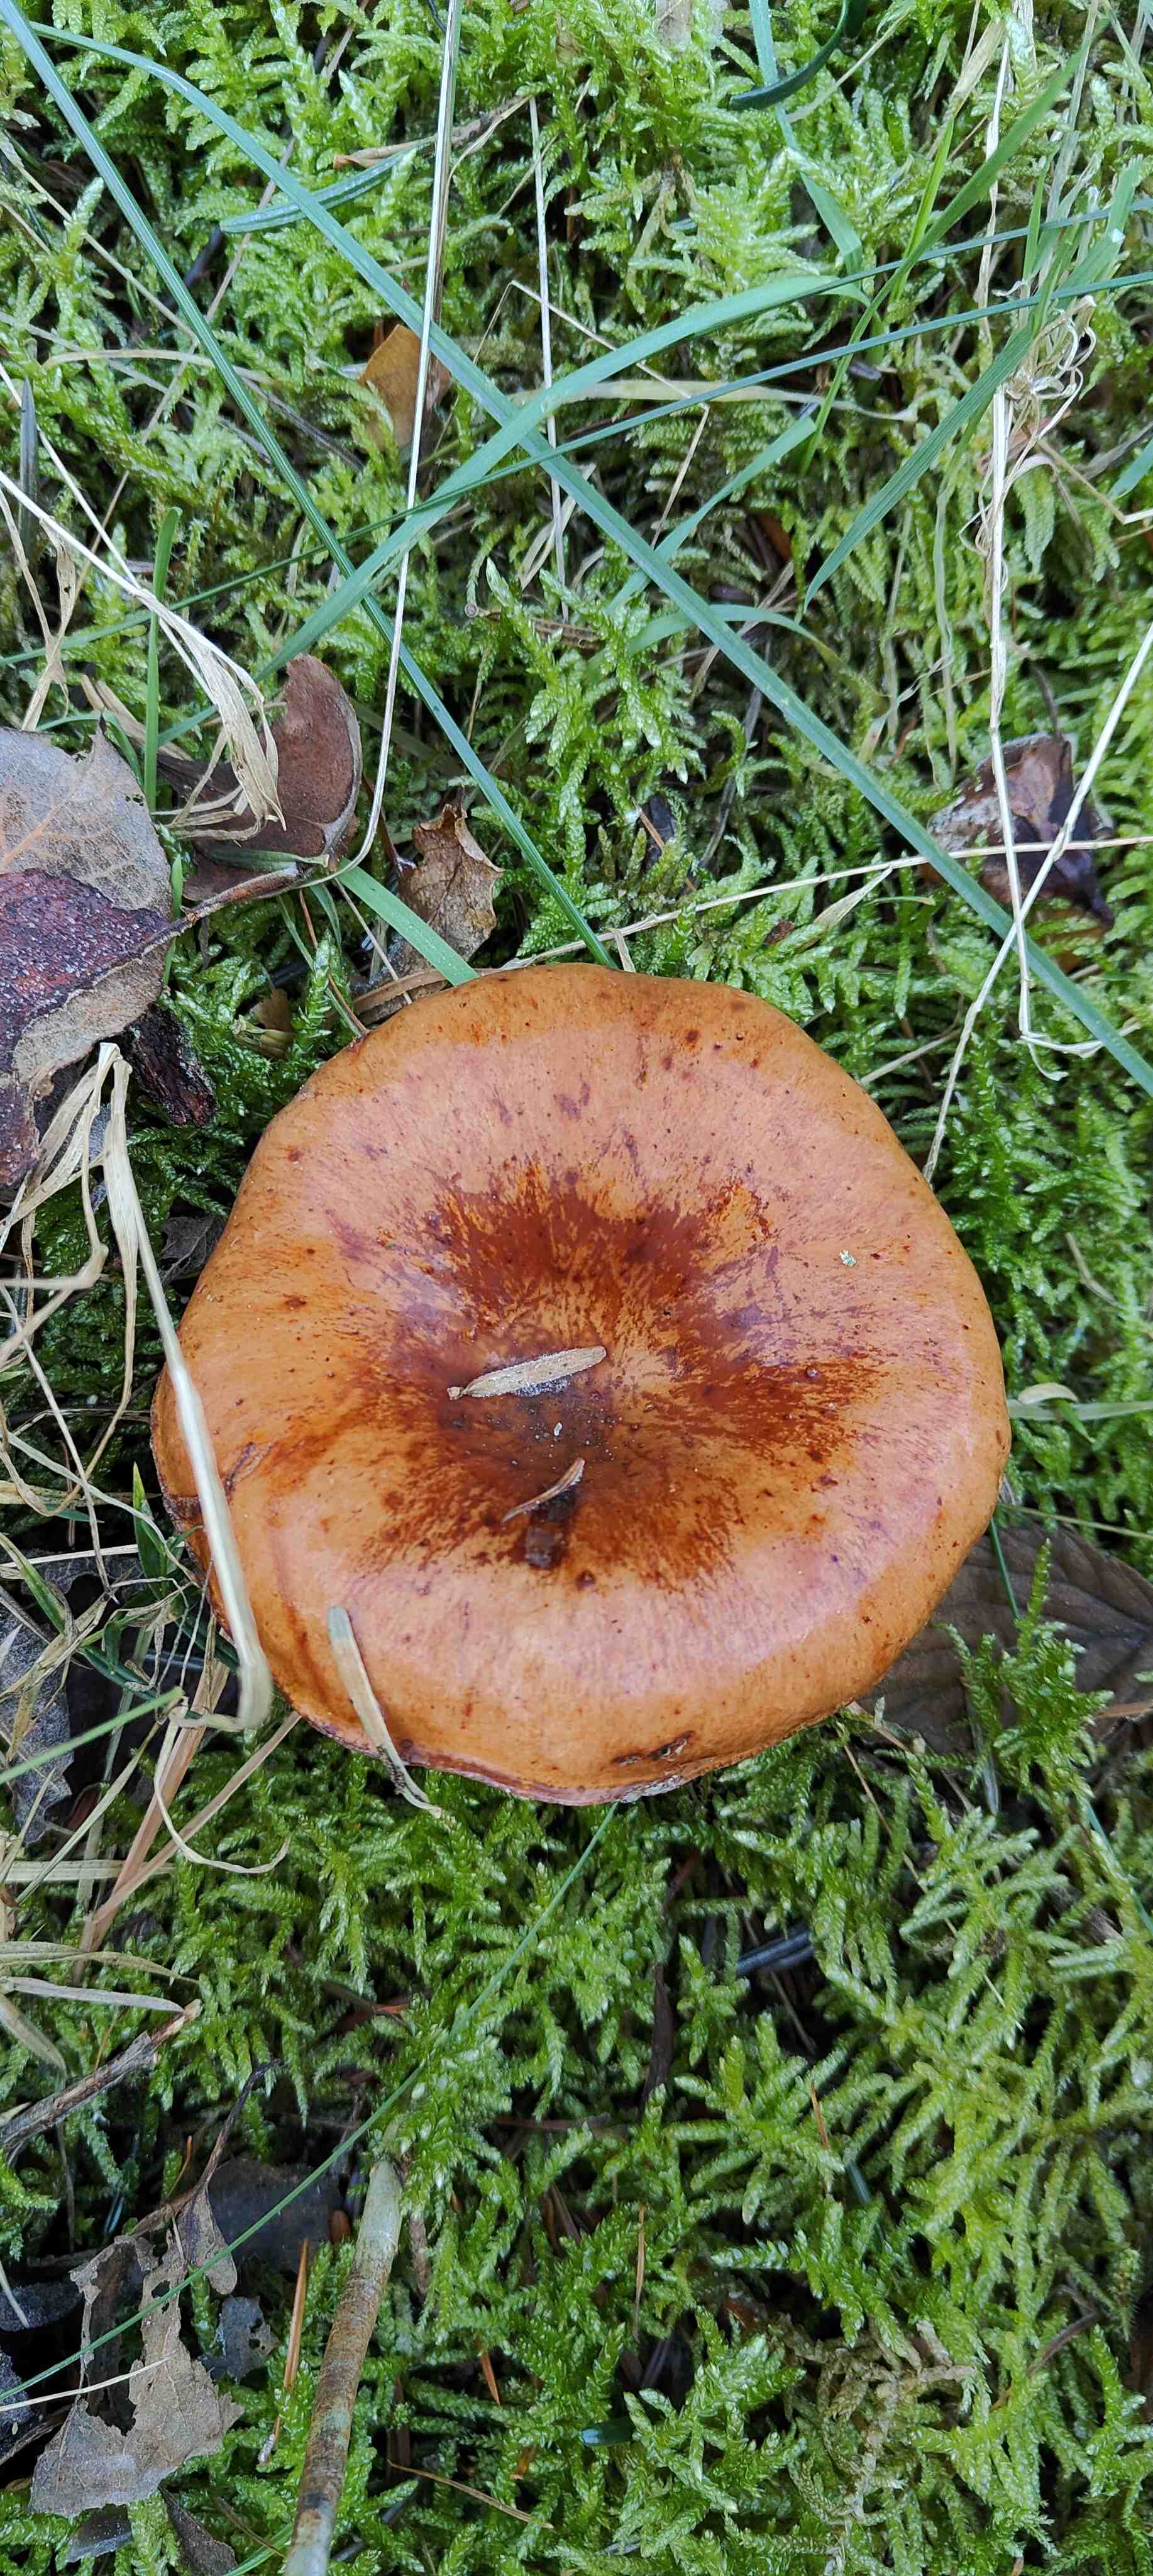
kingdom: Fungi
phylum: Basidiomycota
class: Agaricomycetes
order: Agaricales
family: Tricholomataceae
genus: Paralepista
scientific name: Paralepista flaccida
